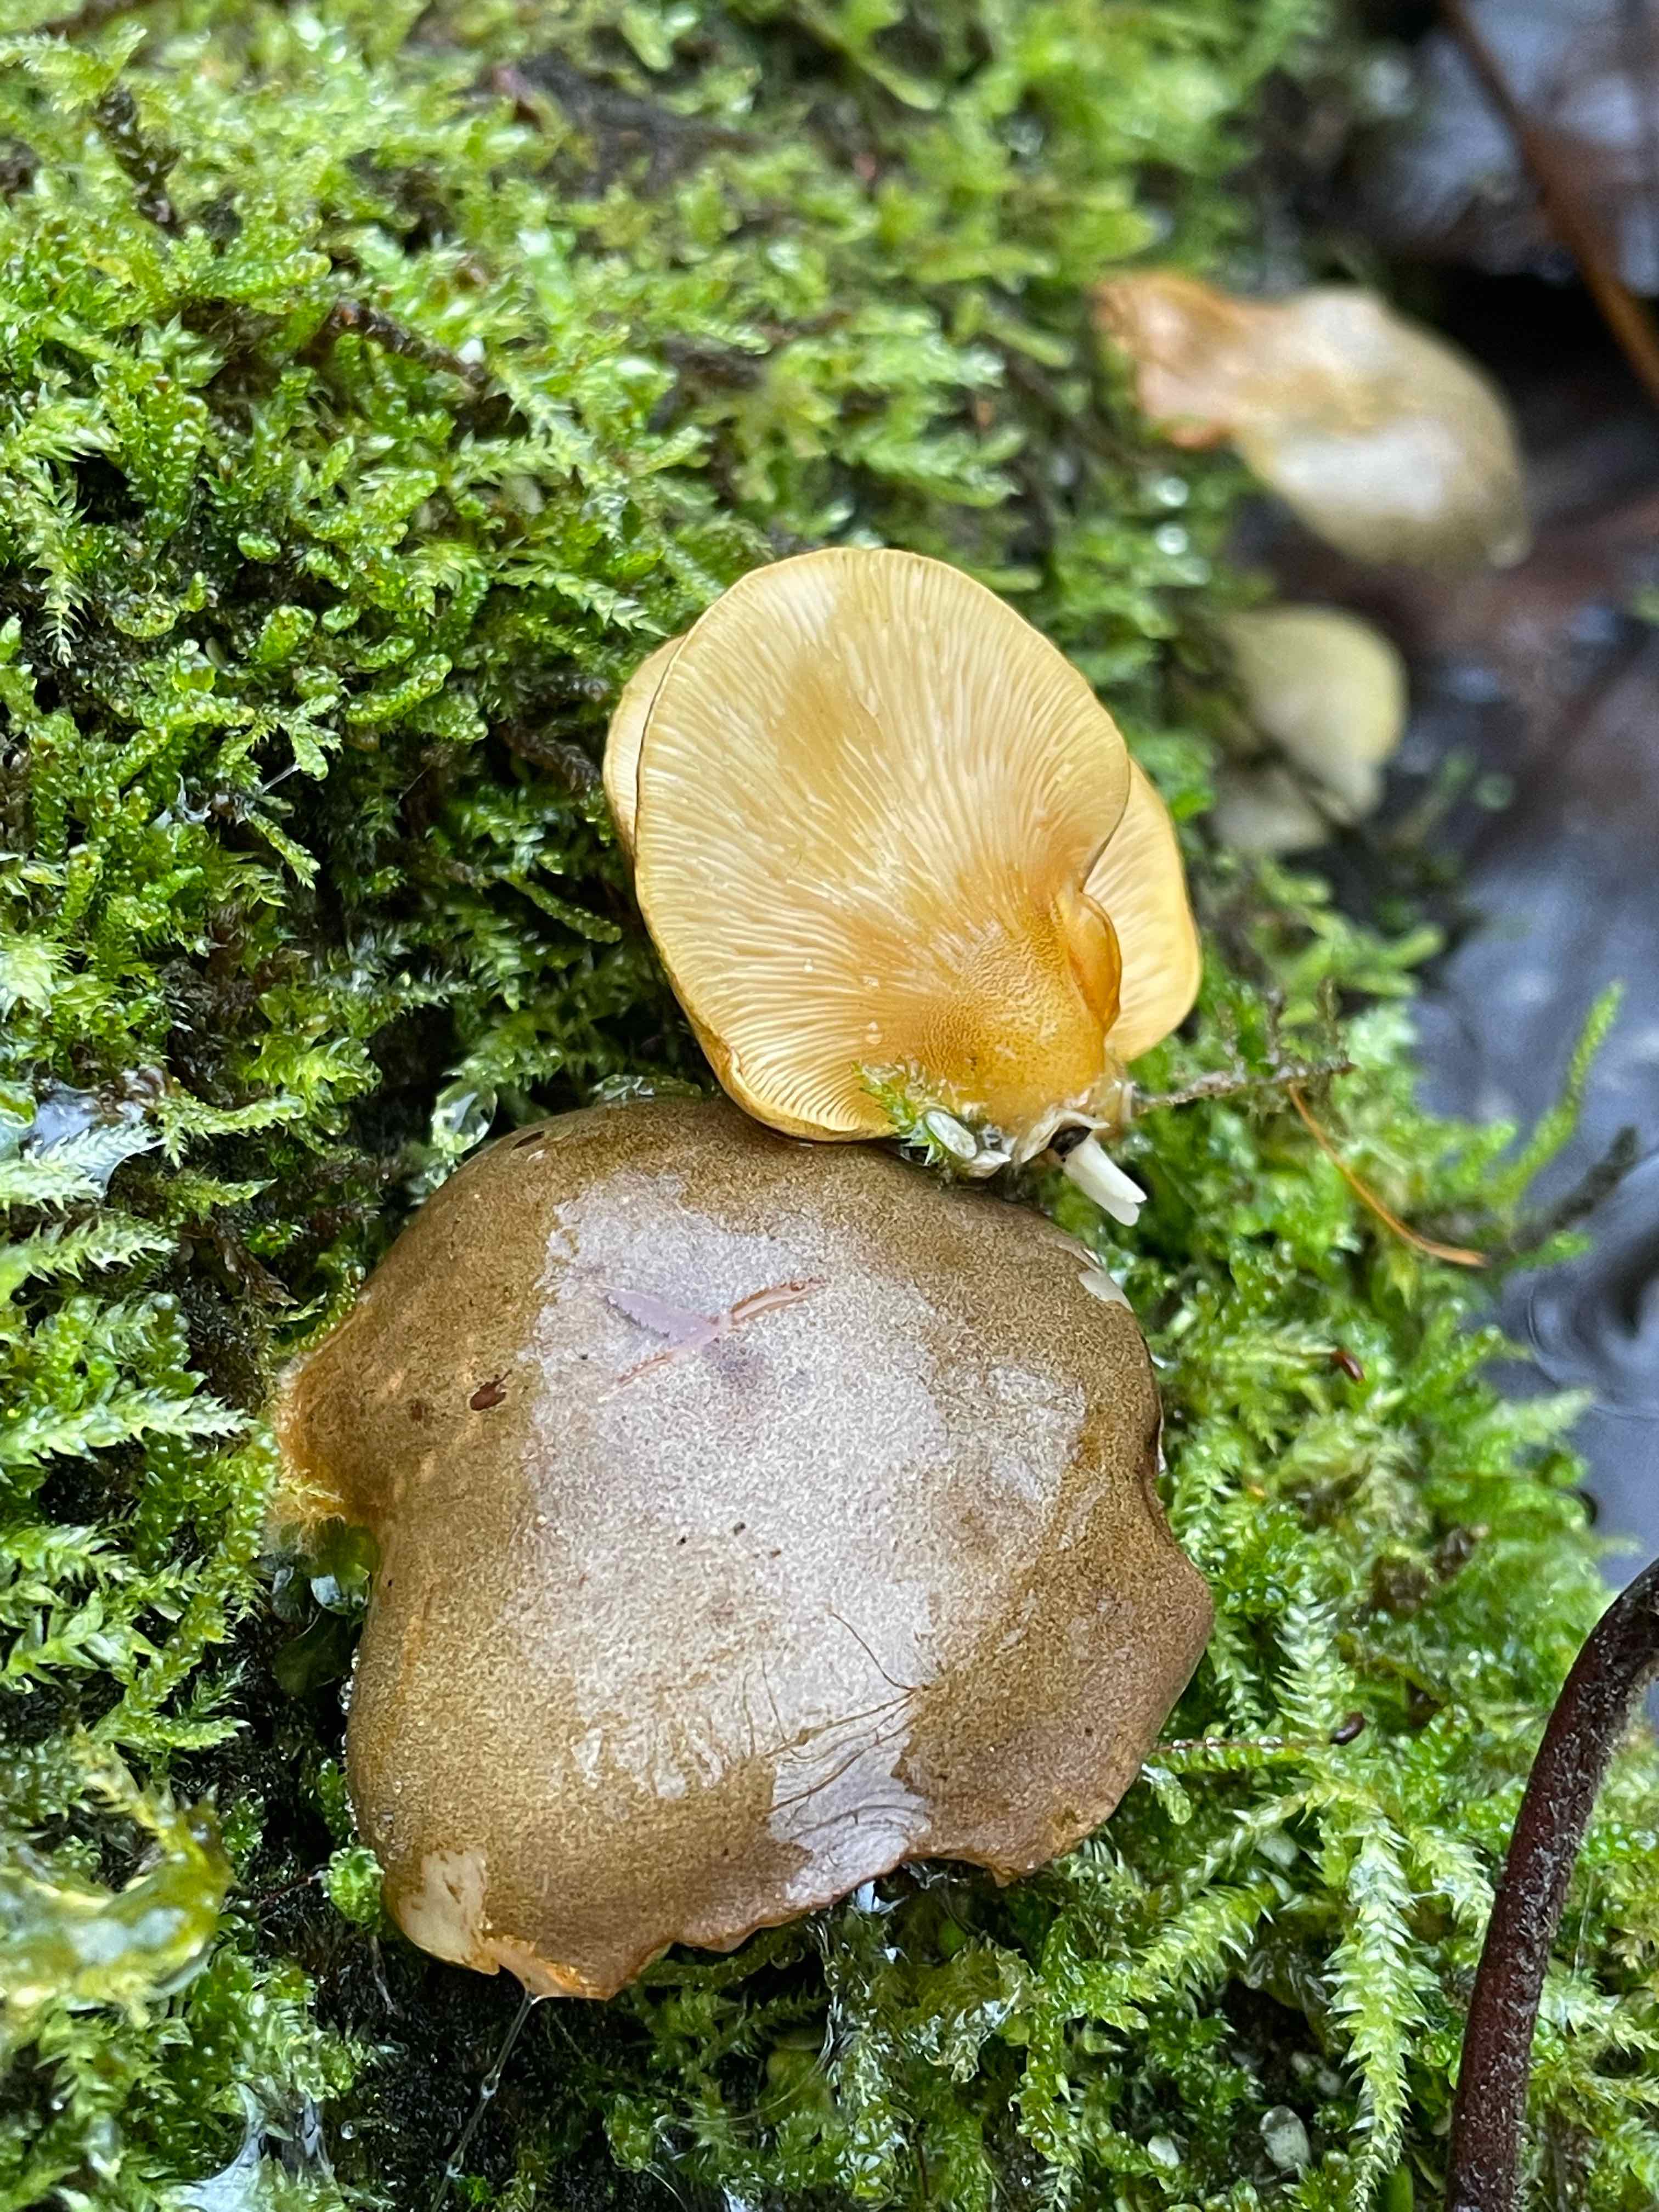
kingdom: Fungi
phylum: Basidiomycota
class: Agaricomycetes
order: Agaricales
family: Sarcomyxaceae
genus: Sarcomyxa
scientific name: Sarcomyxa serotina
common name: gummihat
